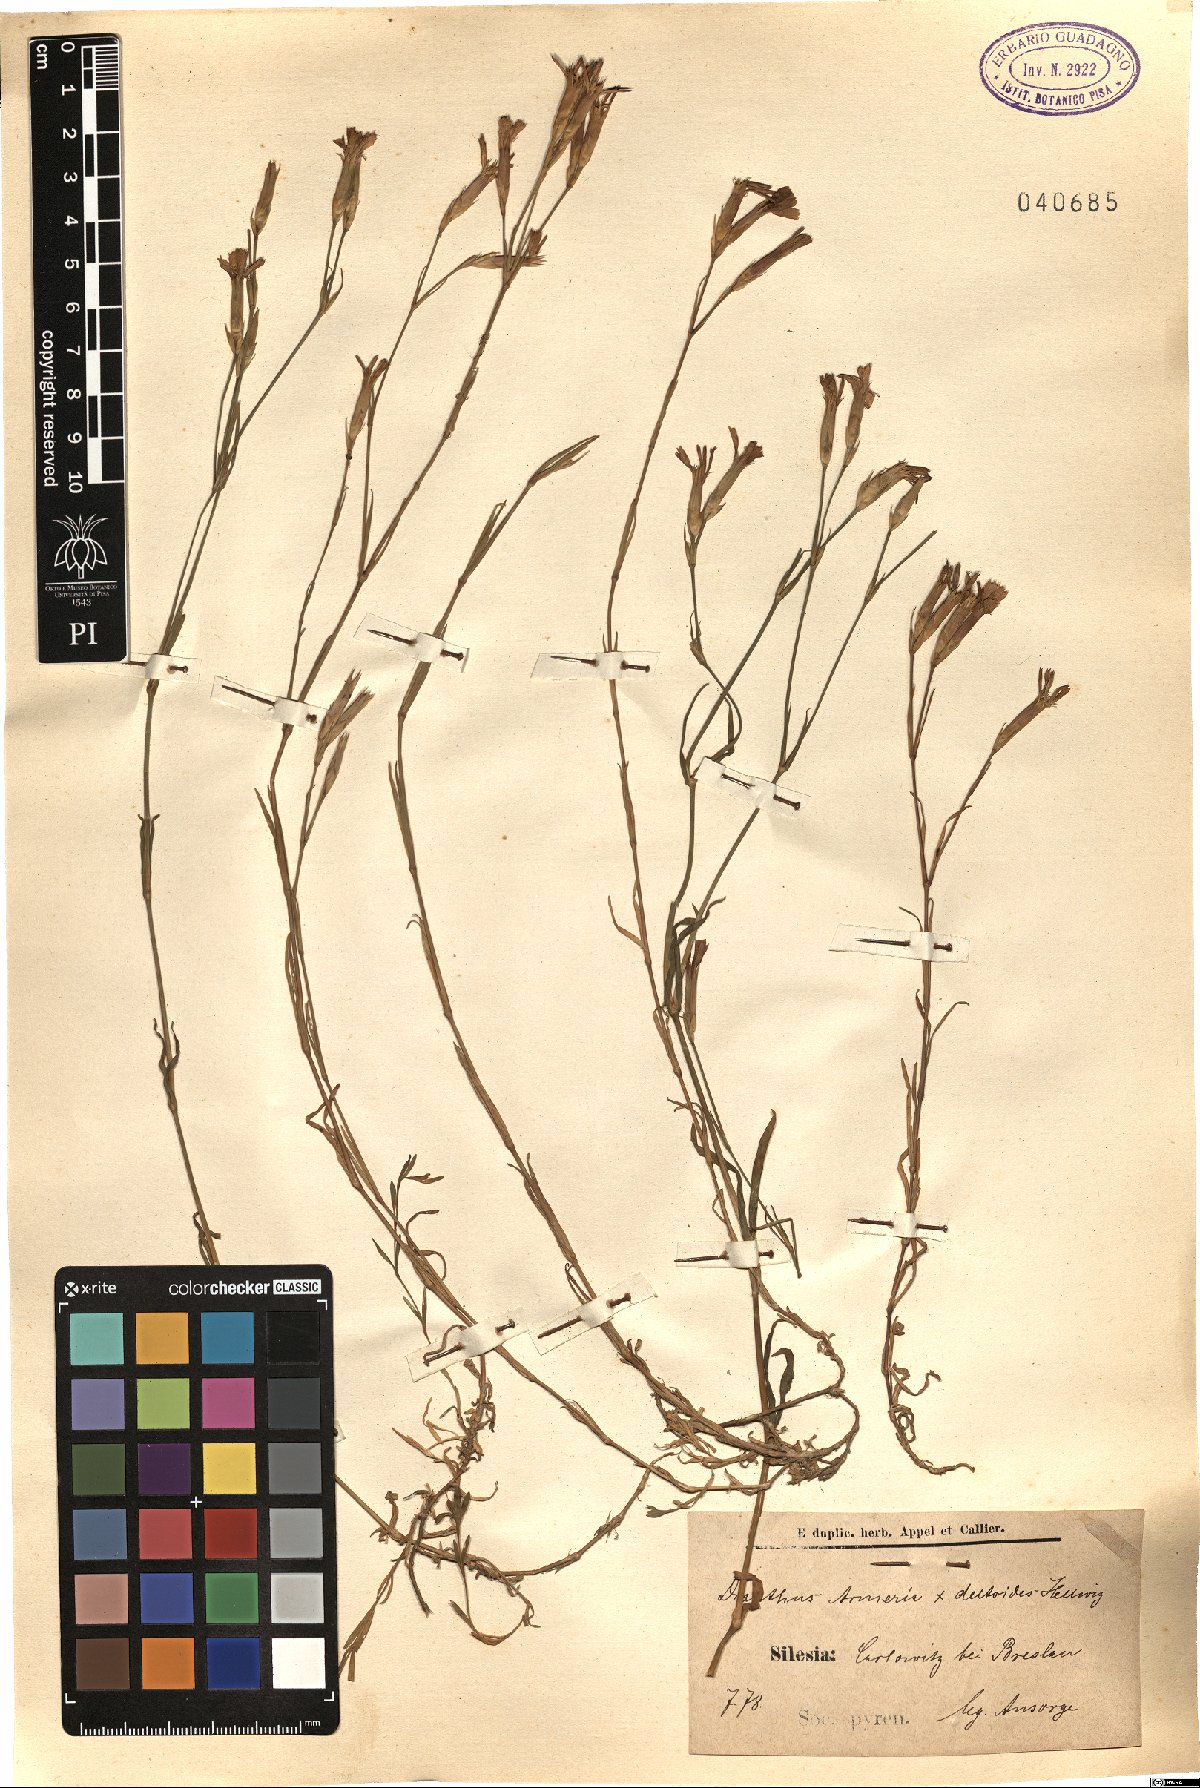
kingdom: Plantae
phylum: Tracheophyta
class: Magnoliopsida
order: Caryophyllales
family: Caryophyllaceae
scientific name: Caryophyllaceae
